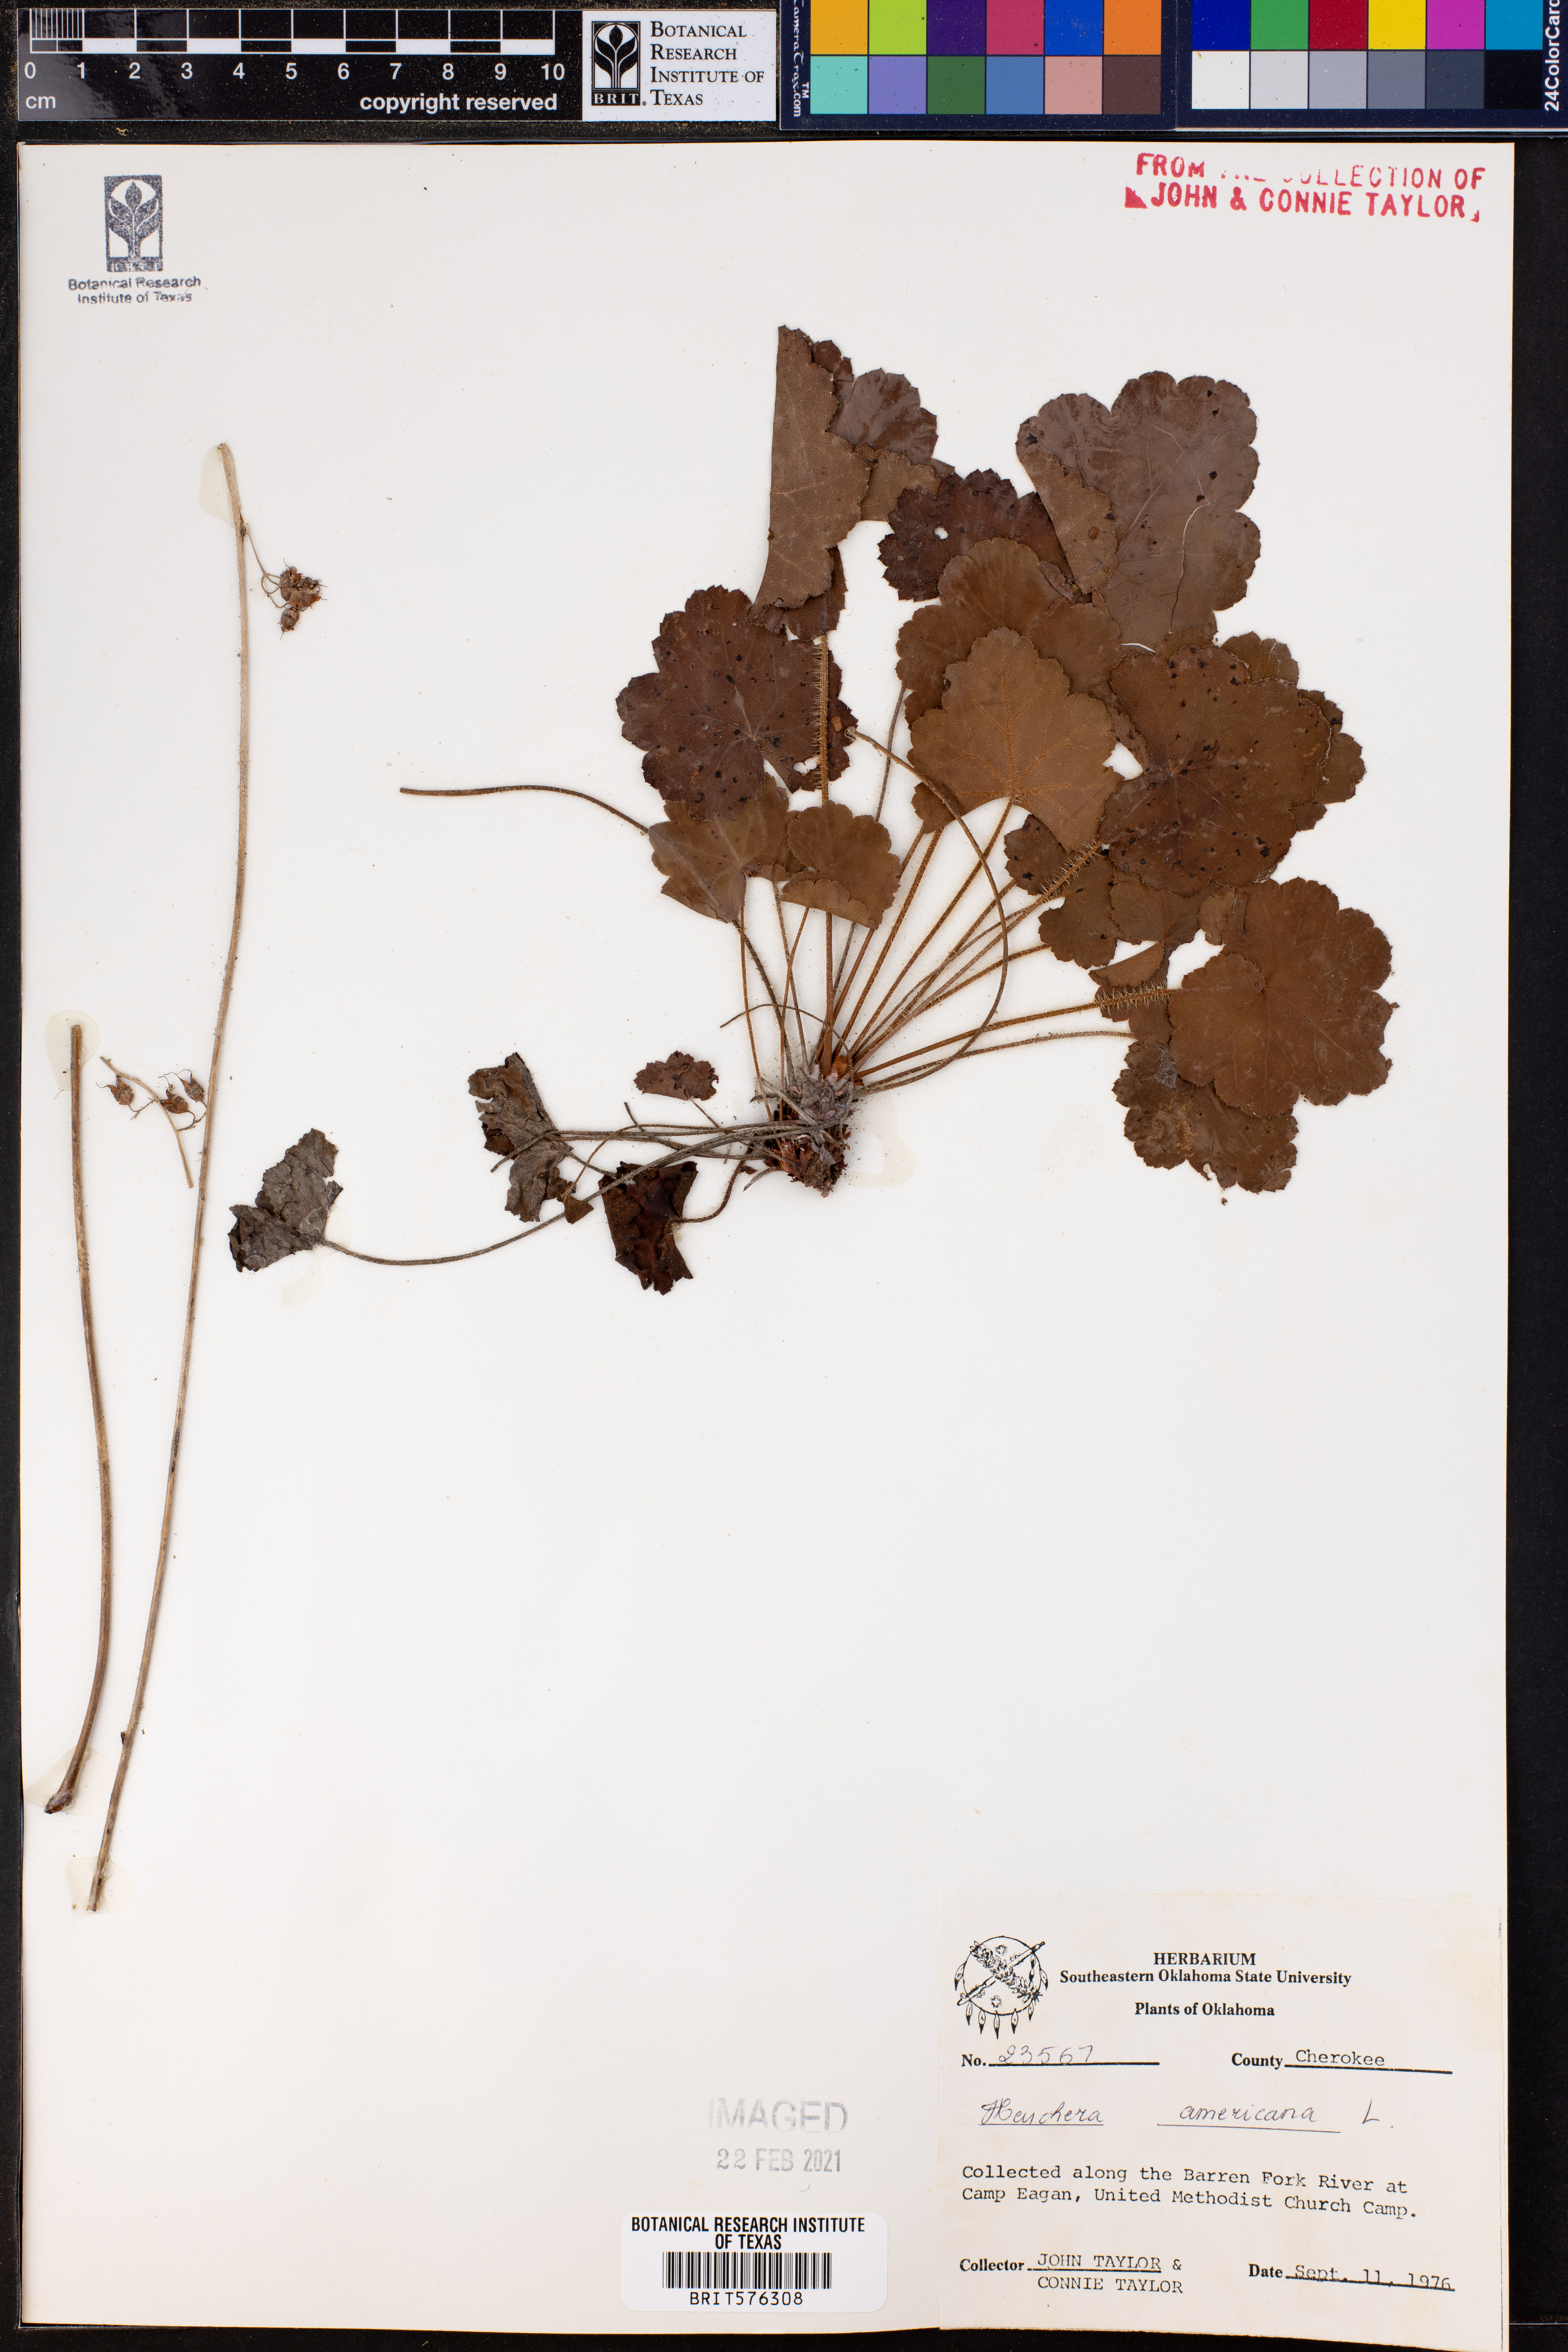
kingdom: Plantae
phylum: Tracheophyta
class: Magnoliopsida
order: Saxifragales
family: Saxifragaceae
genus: Heuchera
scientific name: Heuchera americana
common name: Alumroot
